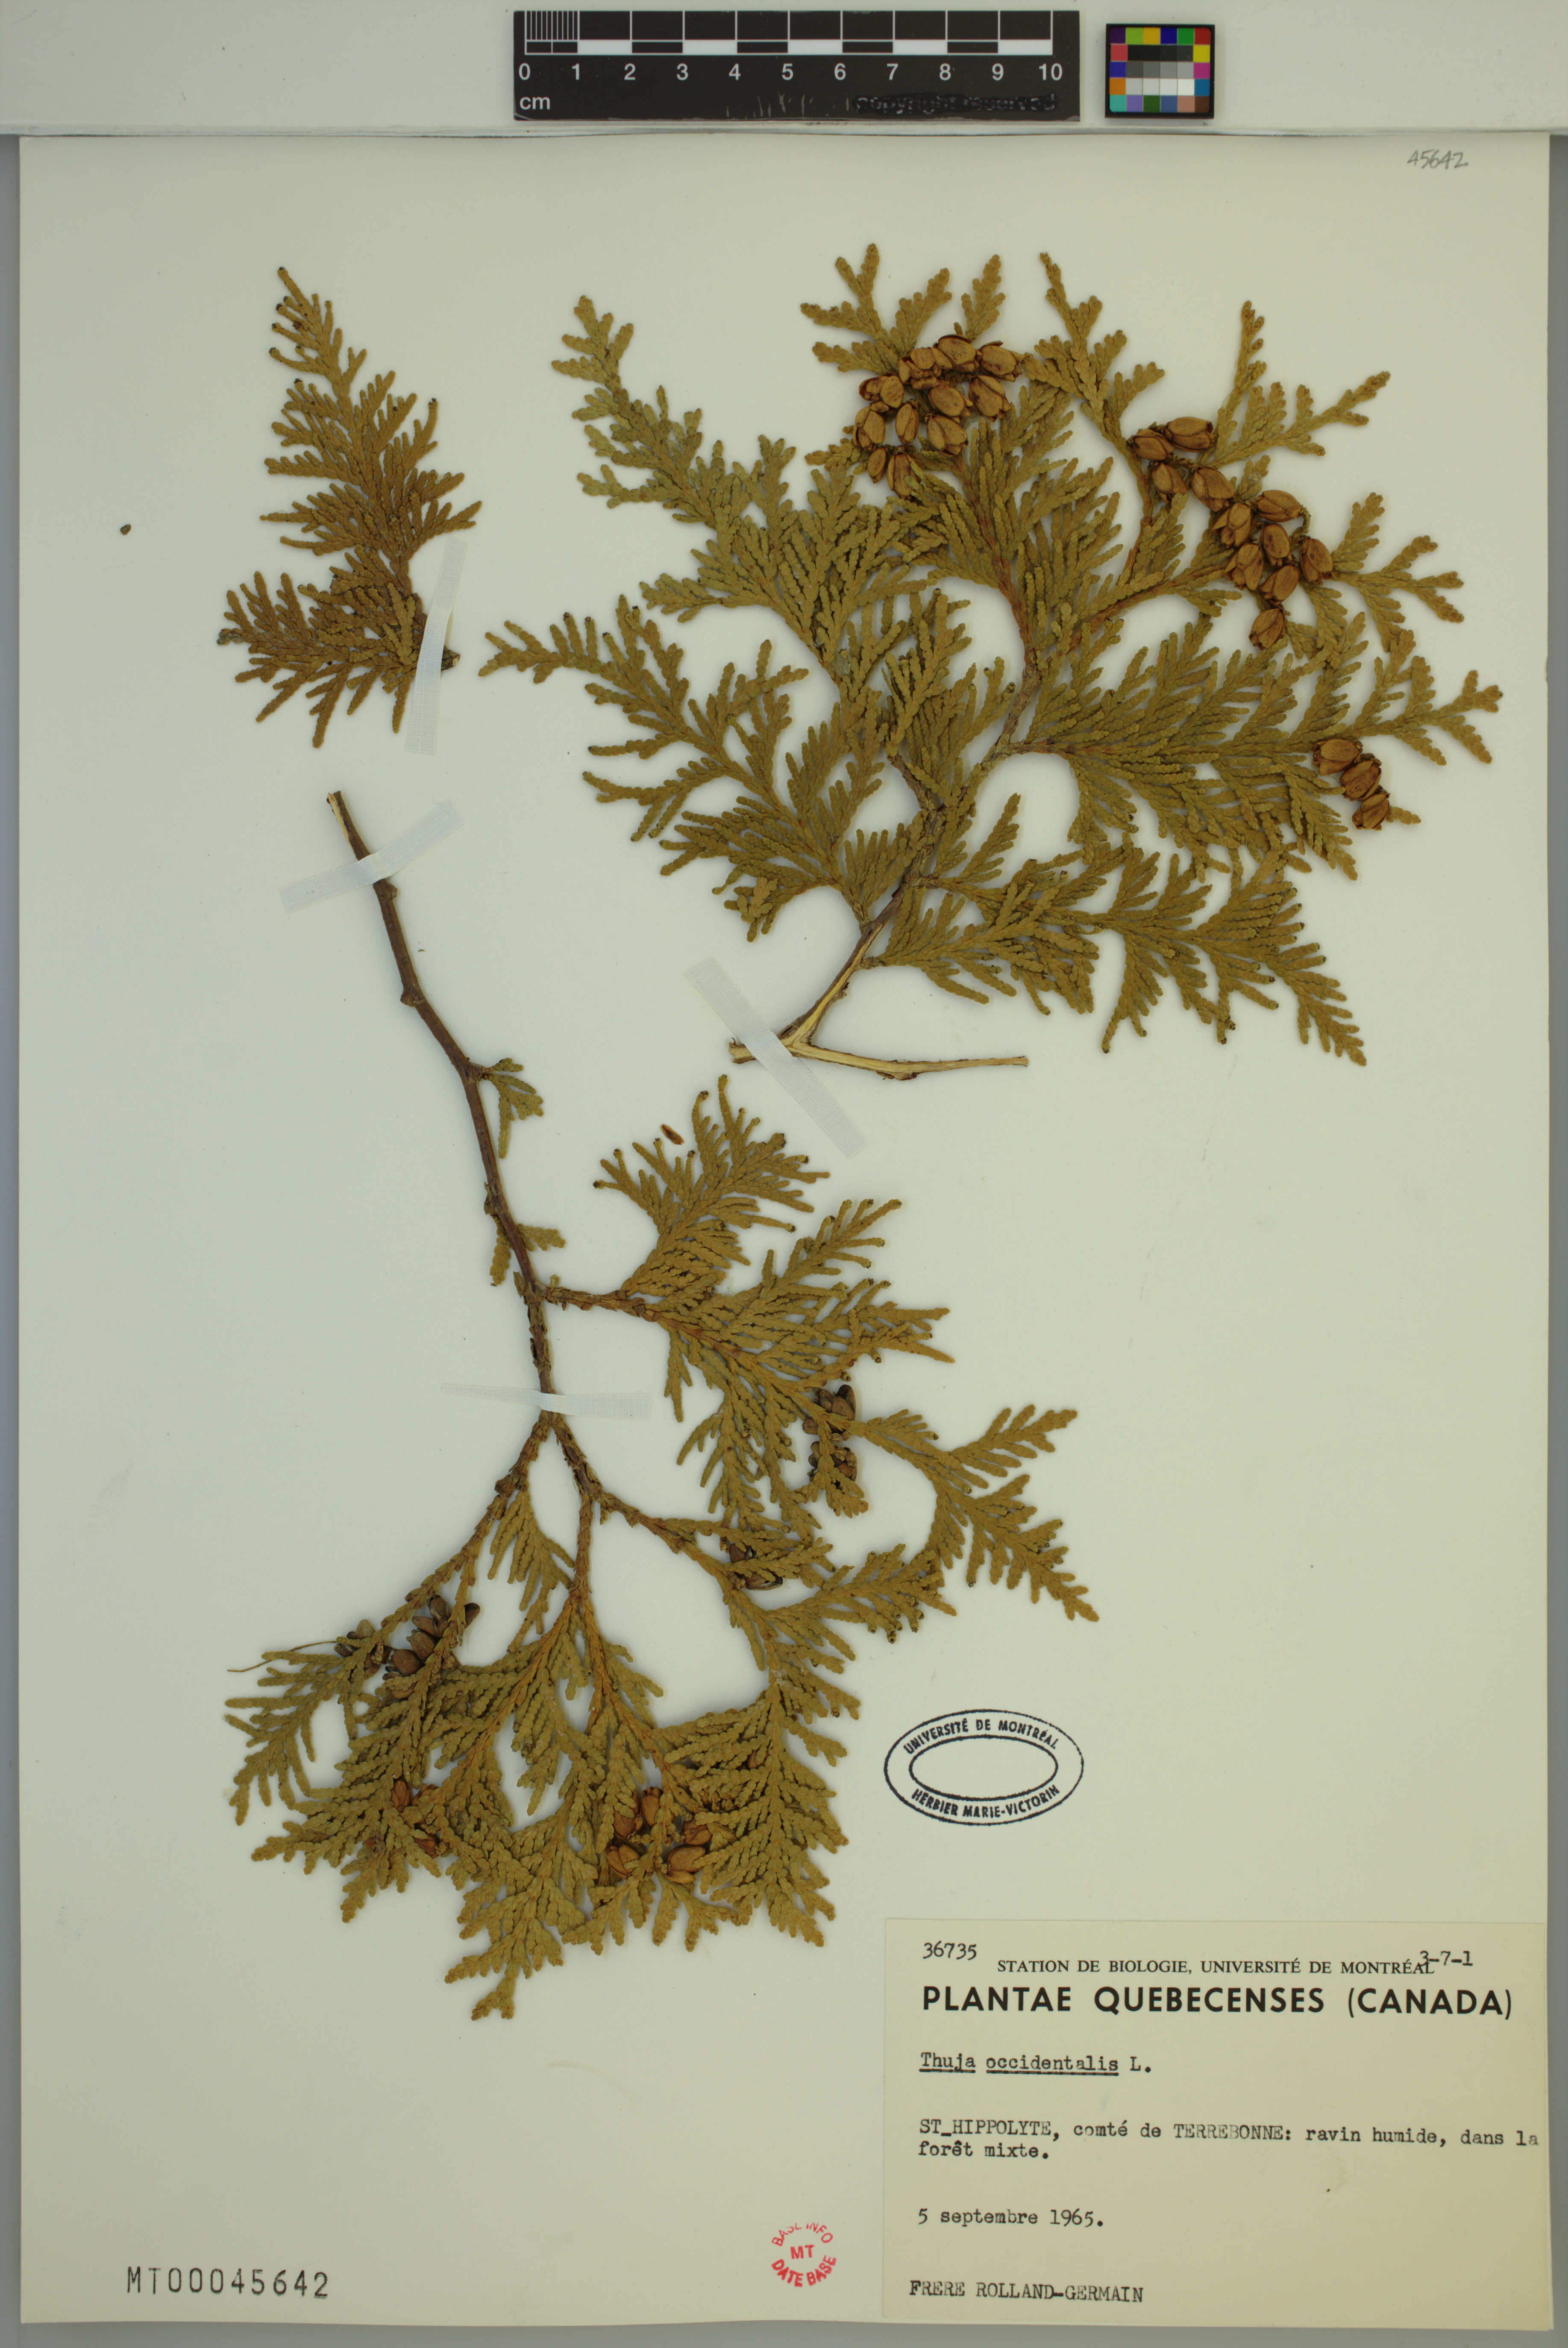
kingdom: Plantae
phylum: Tracheophyta
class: Pinopsida
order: Pinales
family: Cupressaceae
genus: Thuja
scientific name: Thuja occidentalis
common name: Northern white-cedar
